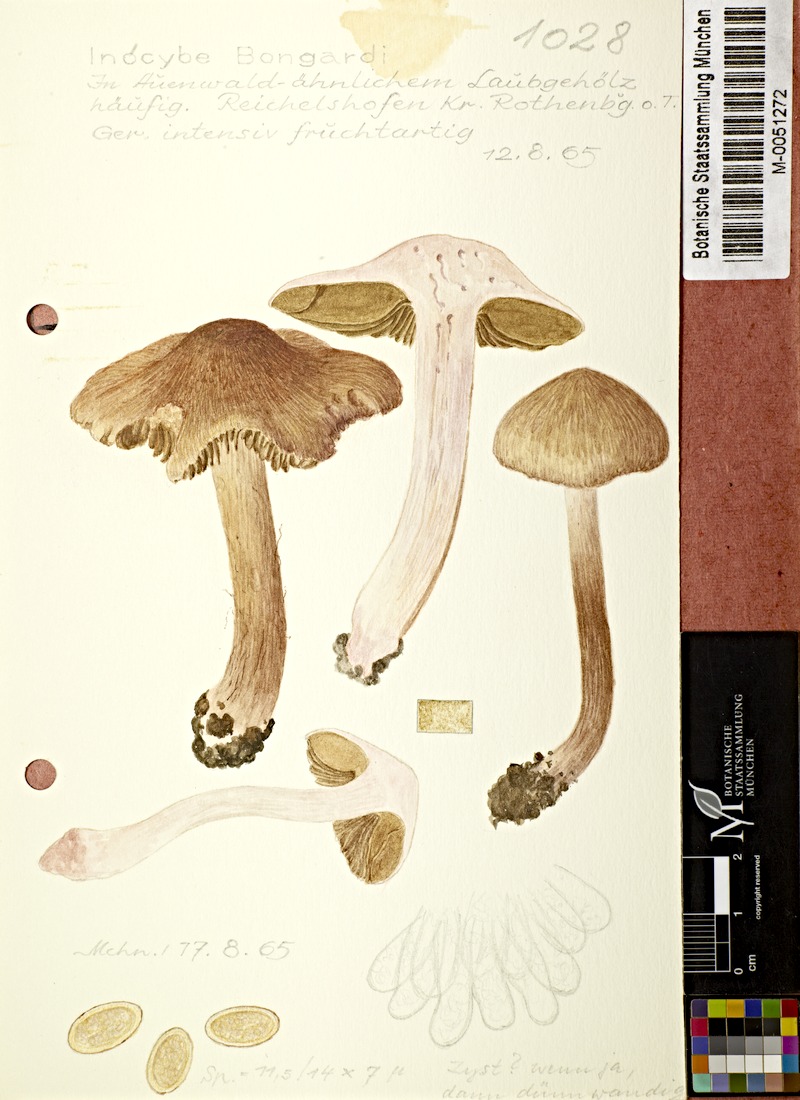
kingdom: Fungi
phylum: Basidiomycota
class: Agaricomycetes
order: Agaricales
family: Inocybaceae
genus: Inosperma
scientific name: Inosperma bongardii
